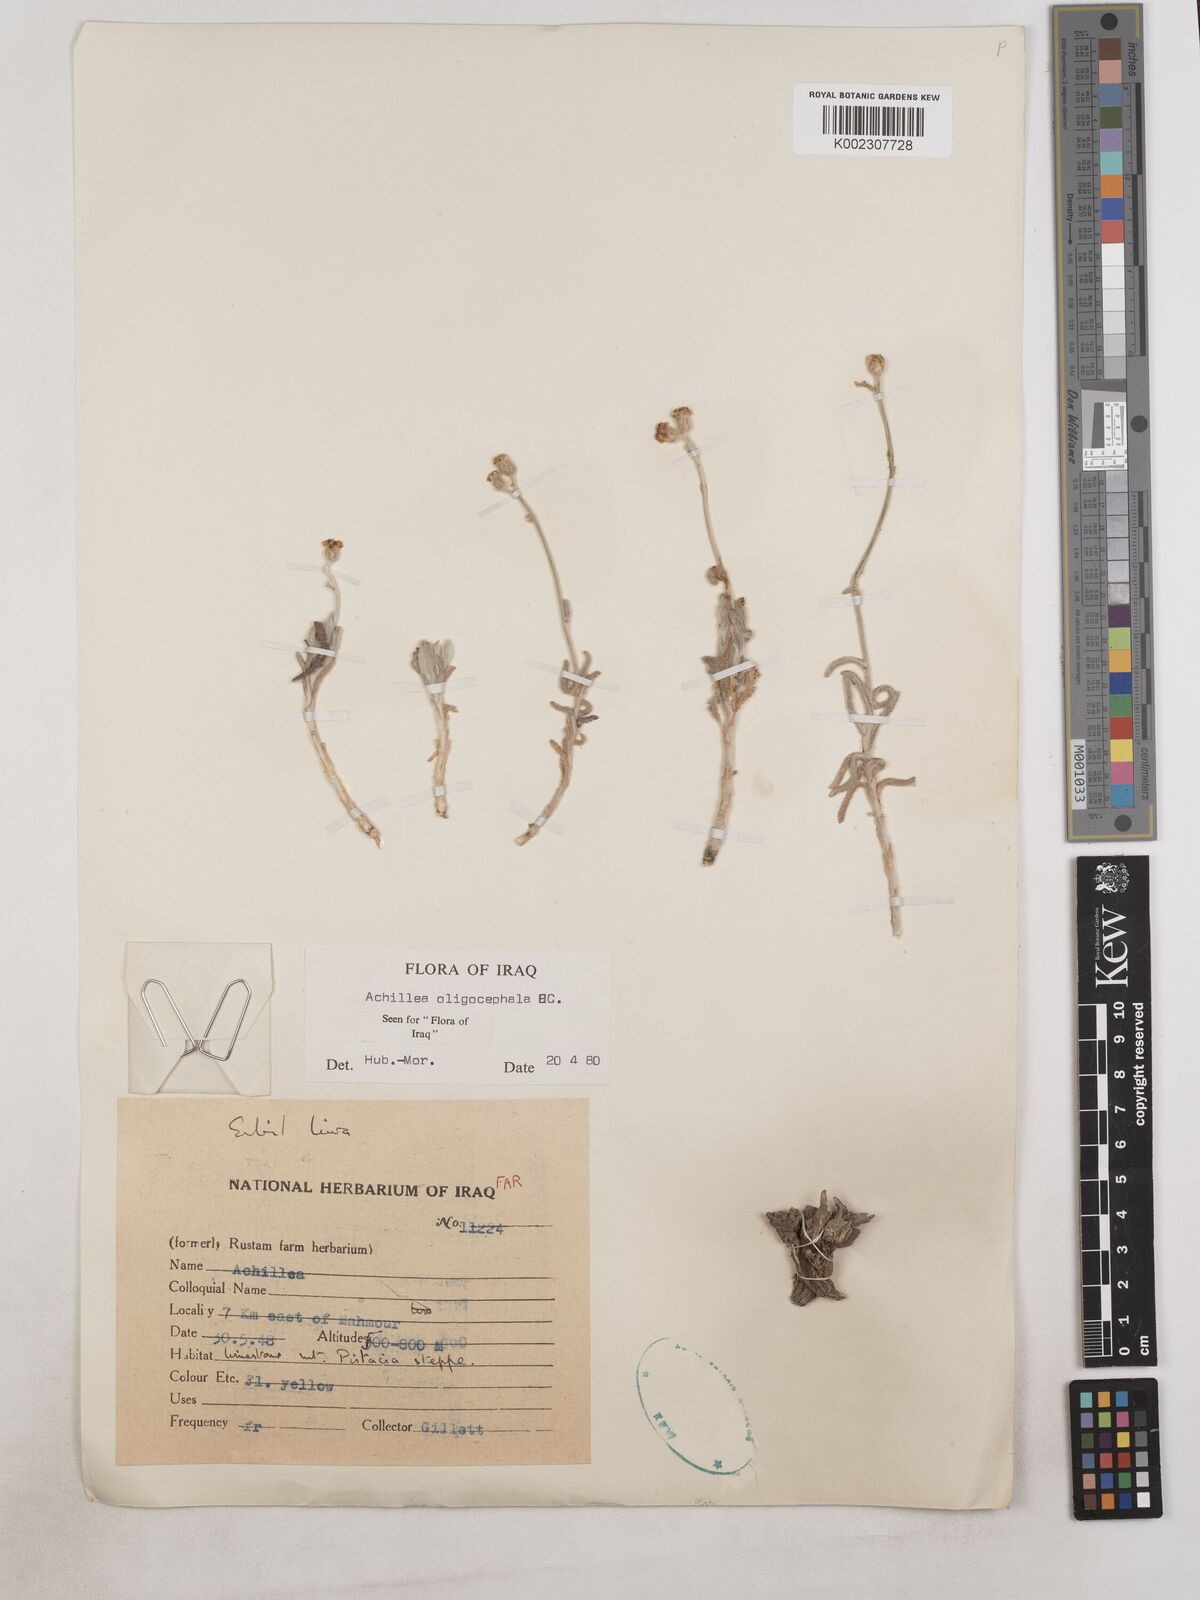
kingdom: Plantae
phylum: Tracheophyta
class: Magnoliopsida
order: Asterales
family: Asteraceae
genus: Achillea
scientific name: Achillea oligocephala
